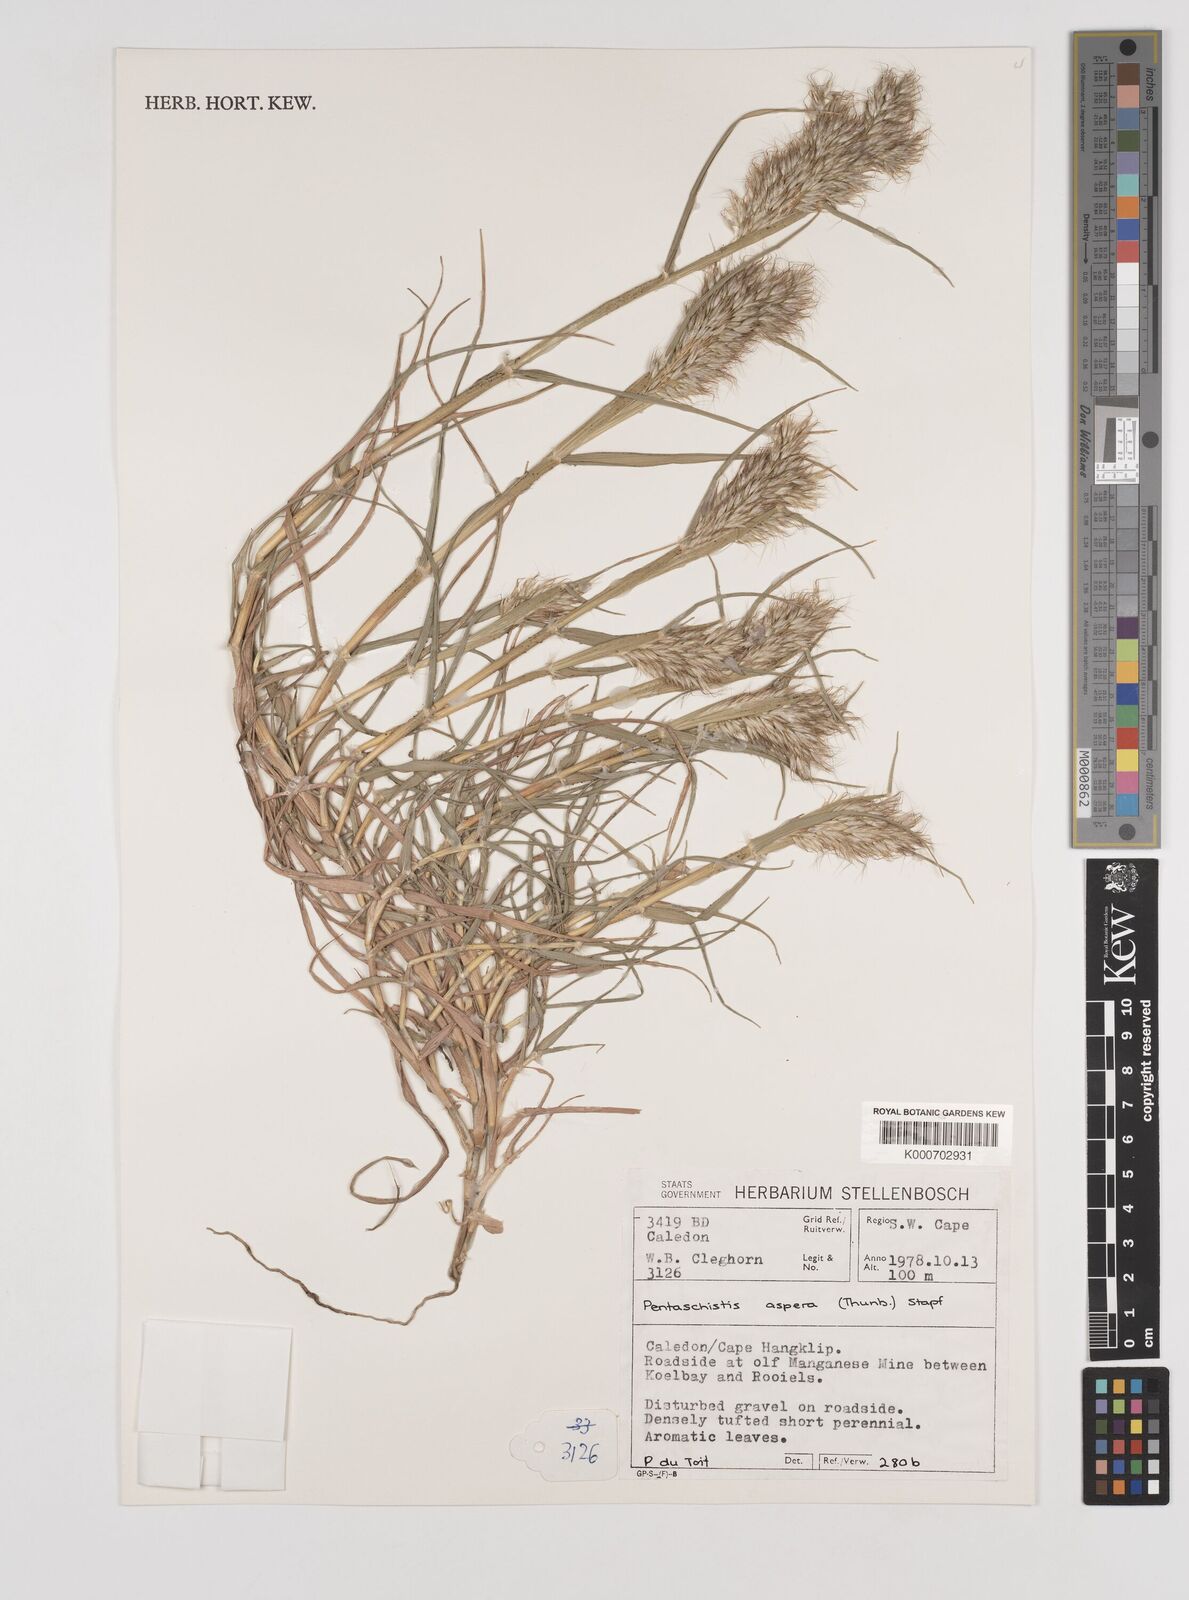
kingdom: Plantae
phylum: Tracheophyta
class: Liliopsida
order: Poales
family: Poaceae
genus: Pentameris
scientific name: Pentameris aspera
